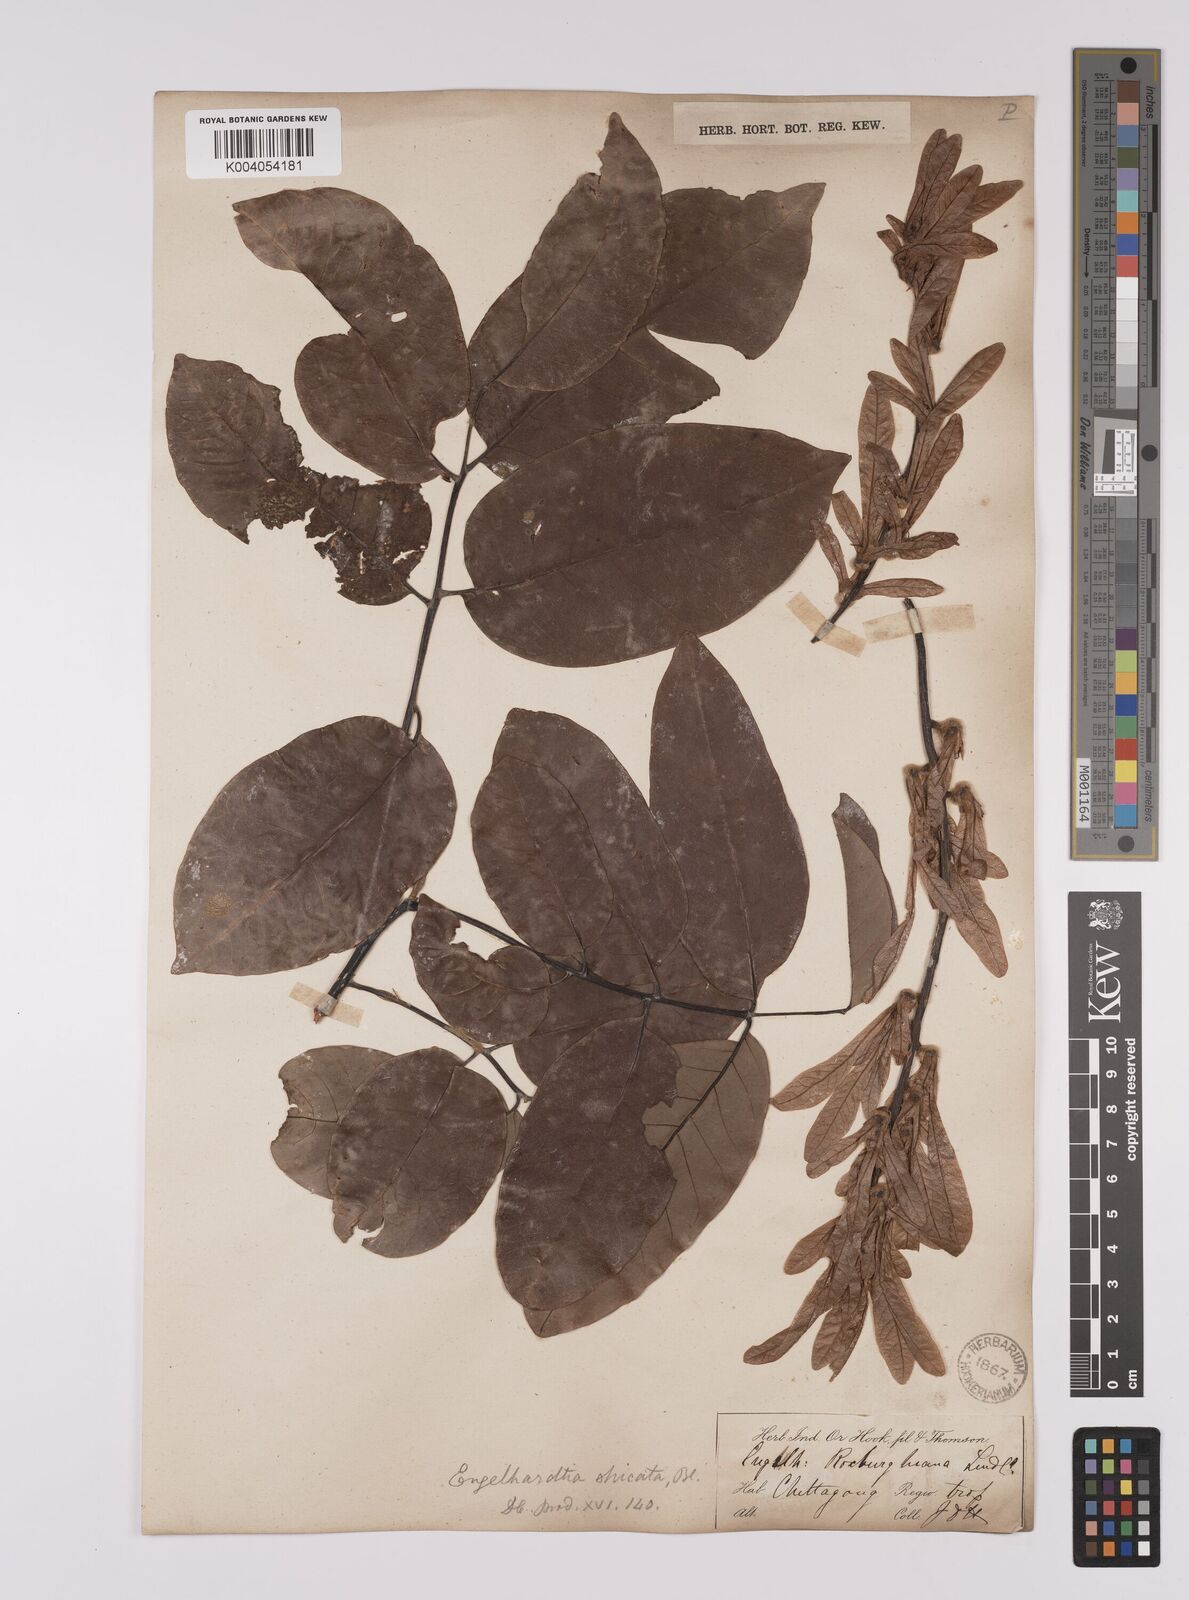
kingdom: Plantae
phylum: Tracheophyta
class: Magnoliopsida
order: Fagales
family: Juglandaceae
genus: Engelhardia
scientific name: Engelhardia spicata
